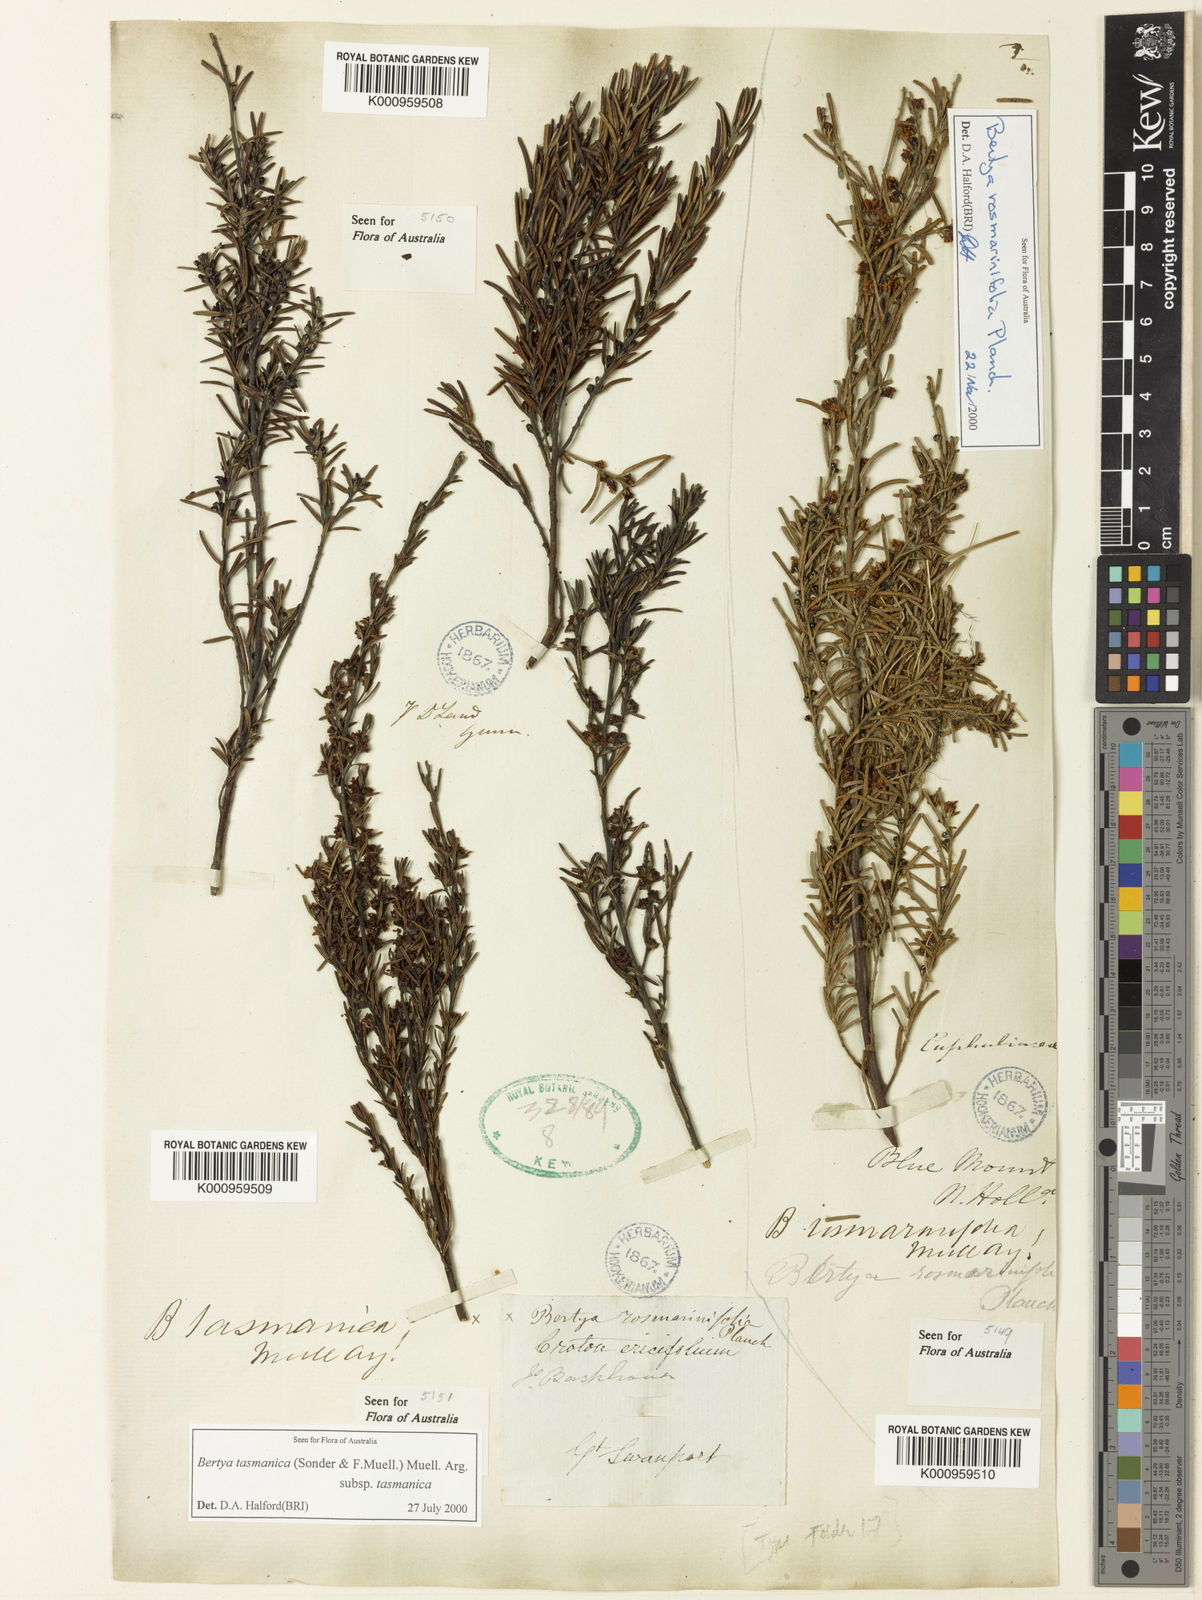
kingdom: Plantae
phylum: Tracheophyta
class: Magnoliopsida
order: Malpighiales
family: Euphorbiaceae
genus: Bertya
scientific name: Bertya rosmarinifolia
